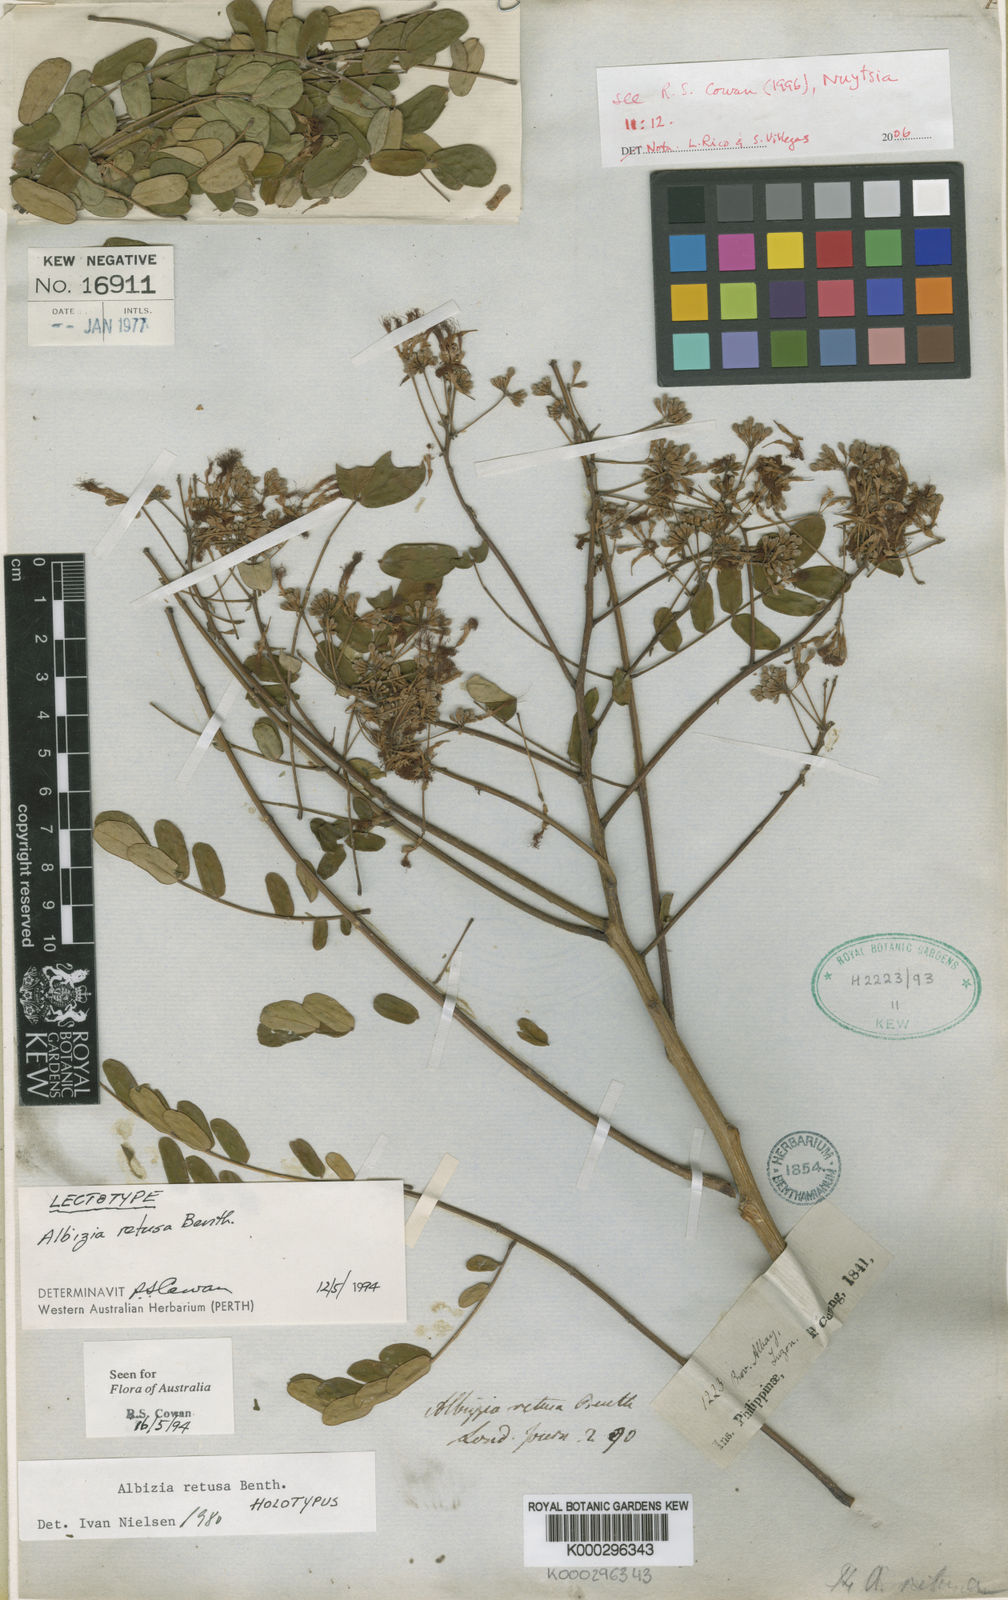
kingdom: Plantae
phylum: Tracheophyta
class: Magnoliopsida
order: Fabales
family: Fabaceae
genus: Albizia
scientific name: Albizia retusa
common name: Sea albizia
